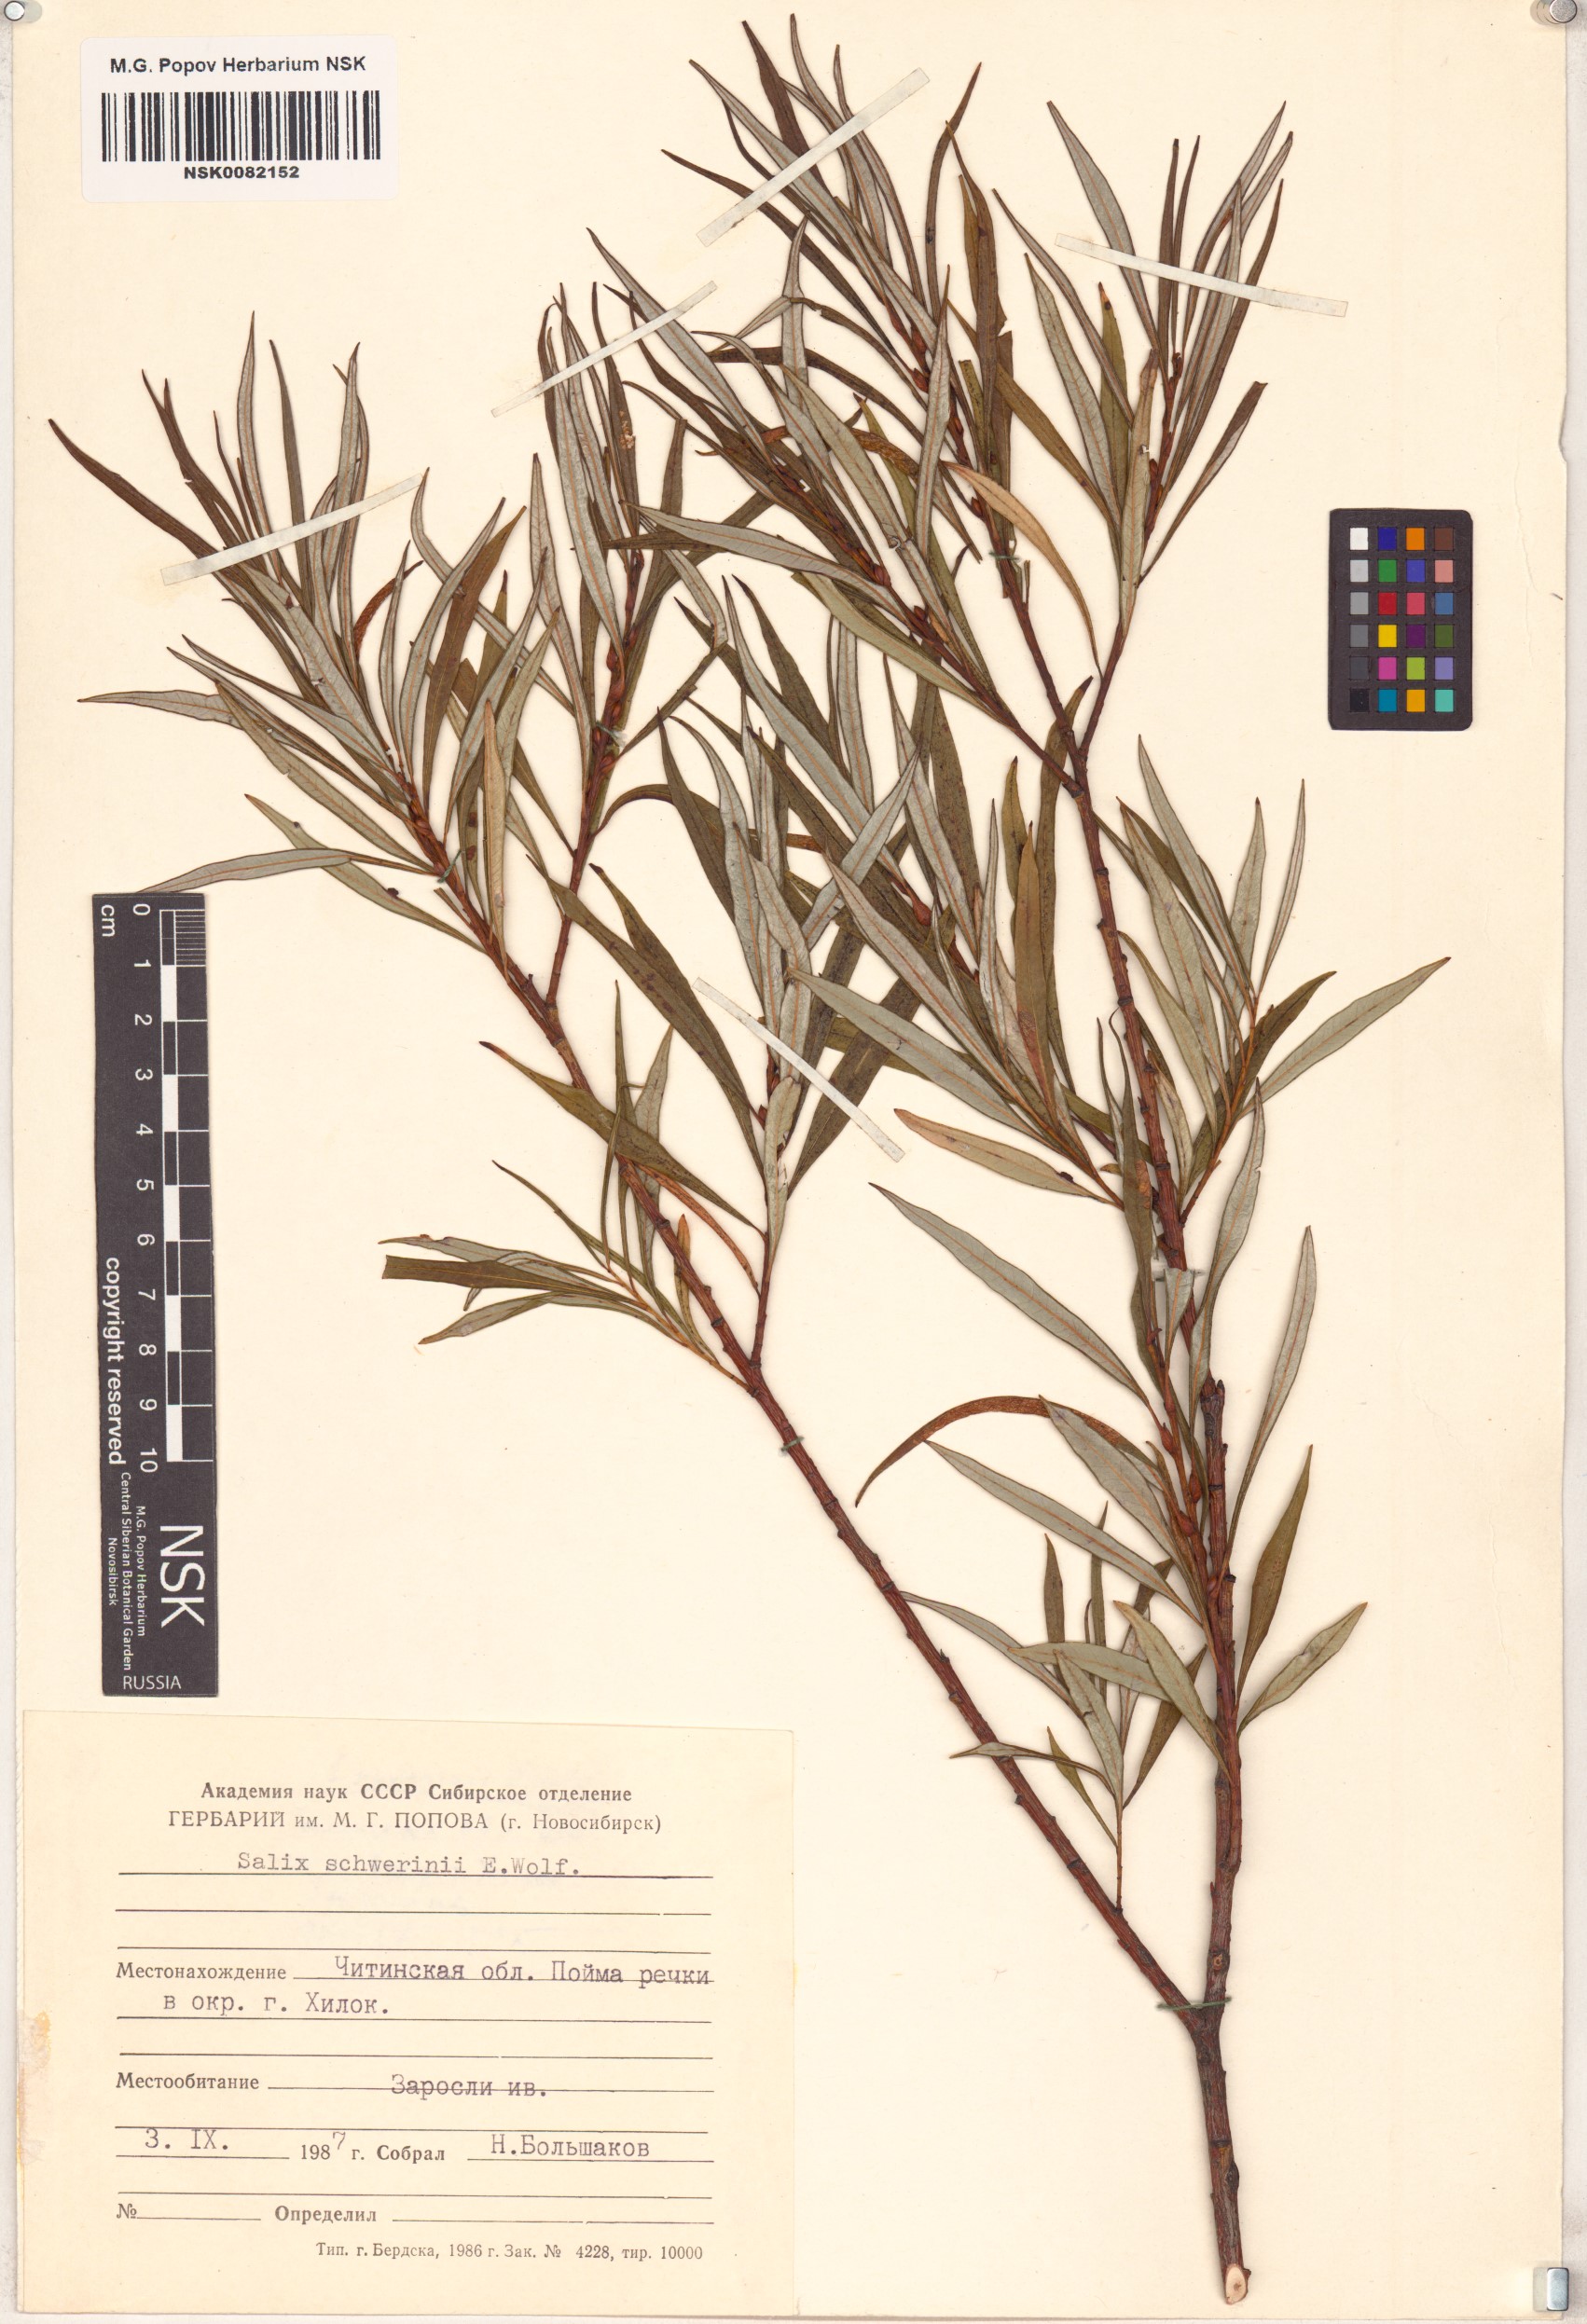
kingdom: Plantae
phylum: Tracheophyta
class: Magnoliopsida
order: Malpighiales
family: Salicaceae
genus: Salix
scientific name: Salix schwerinii
